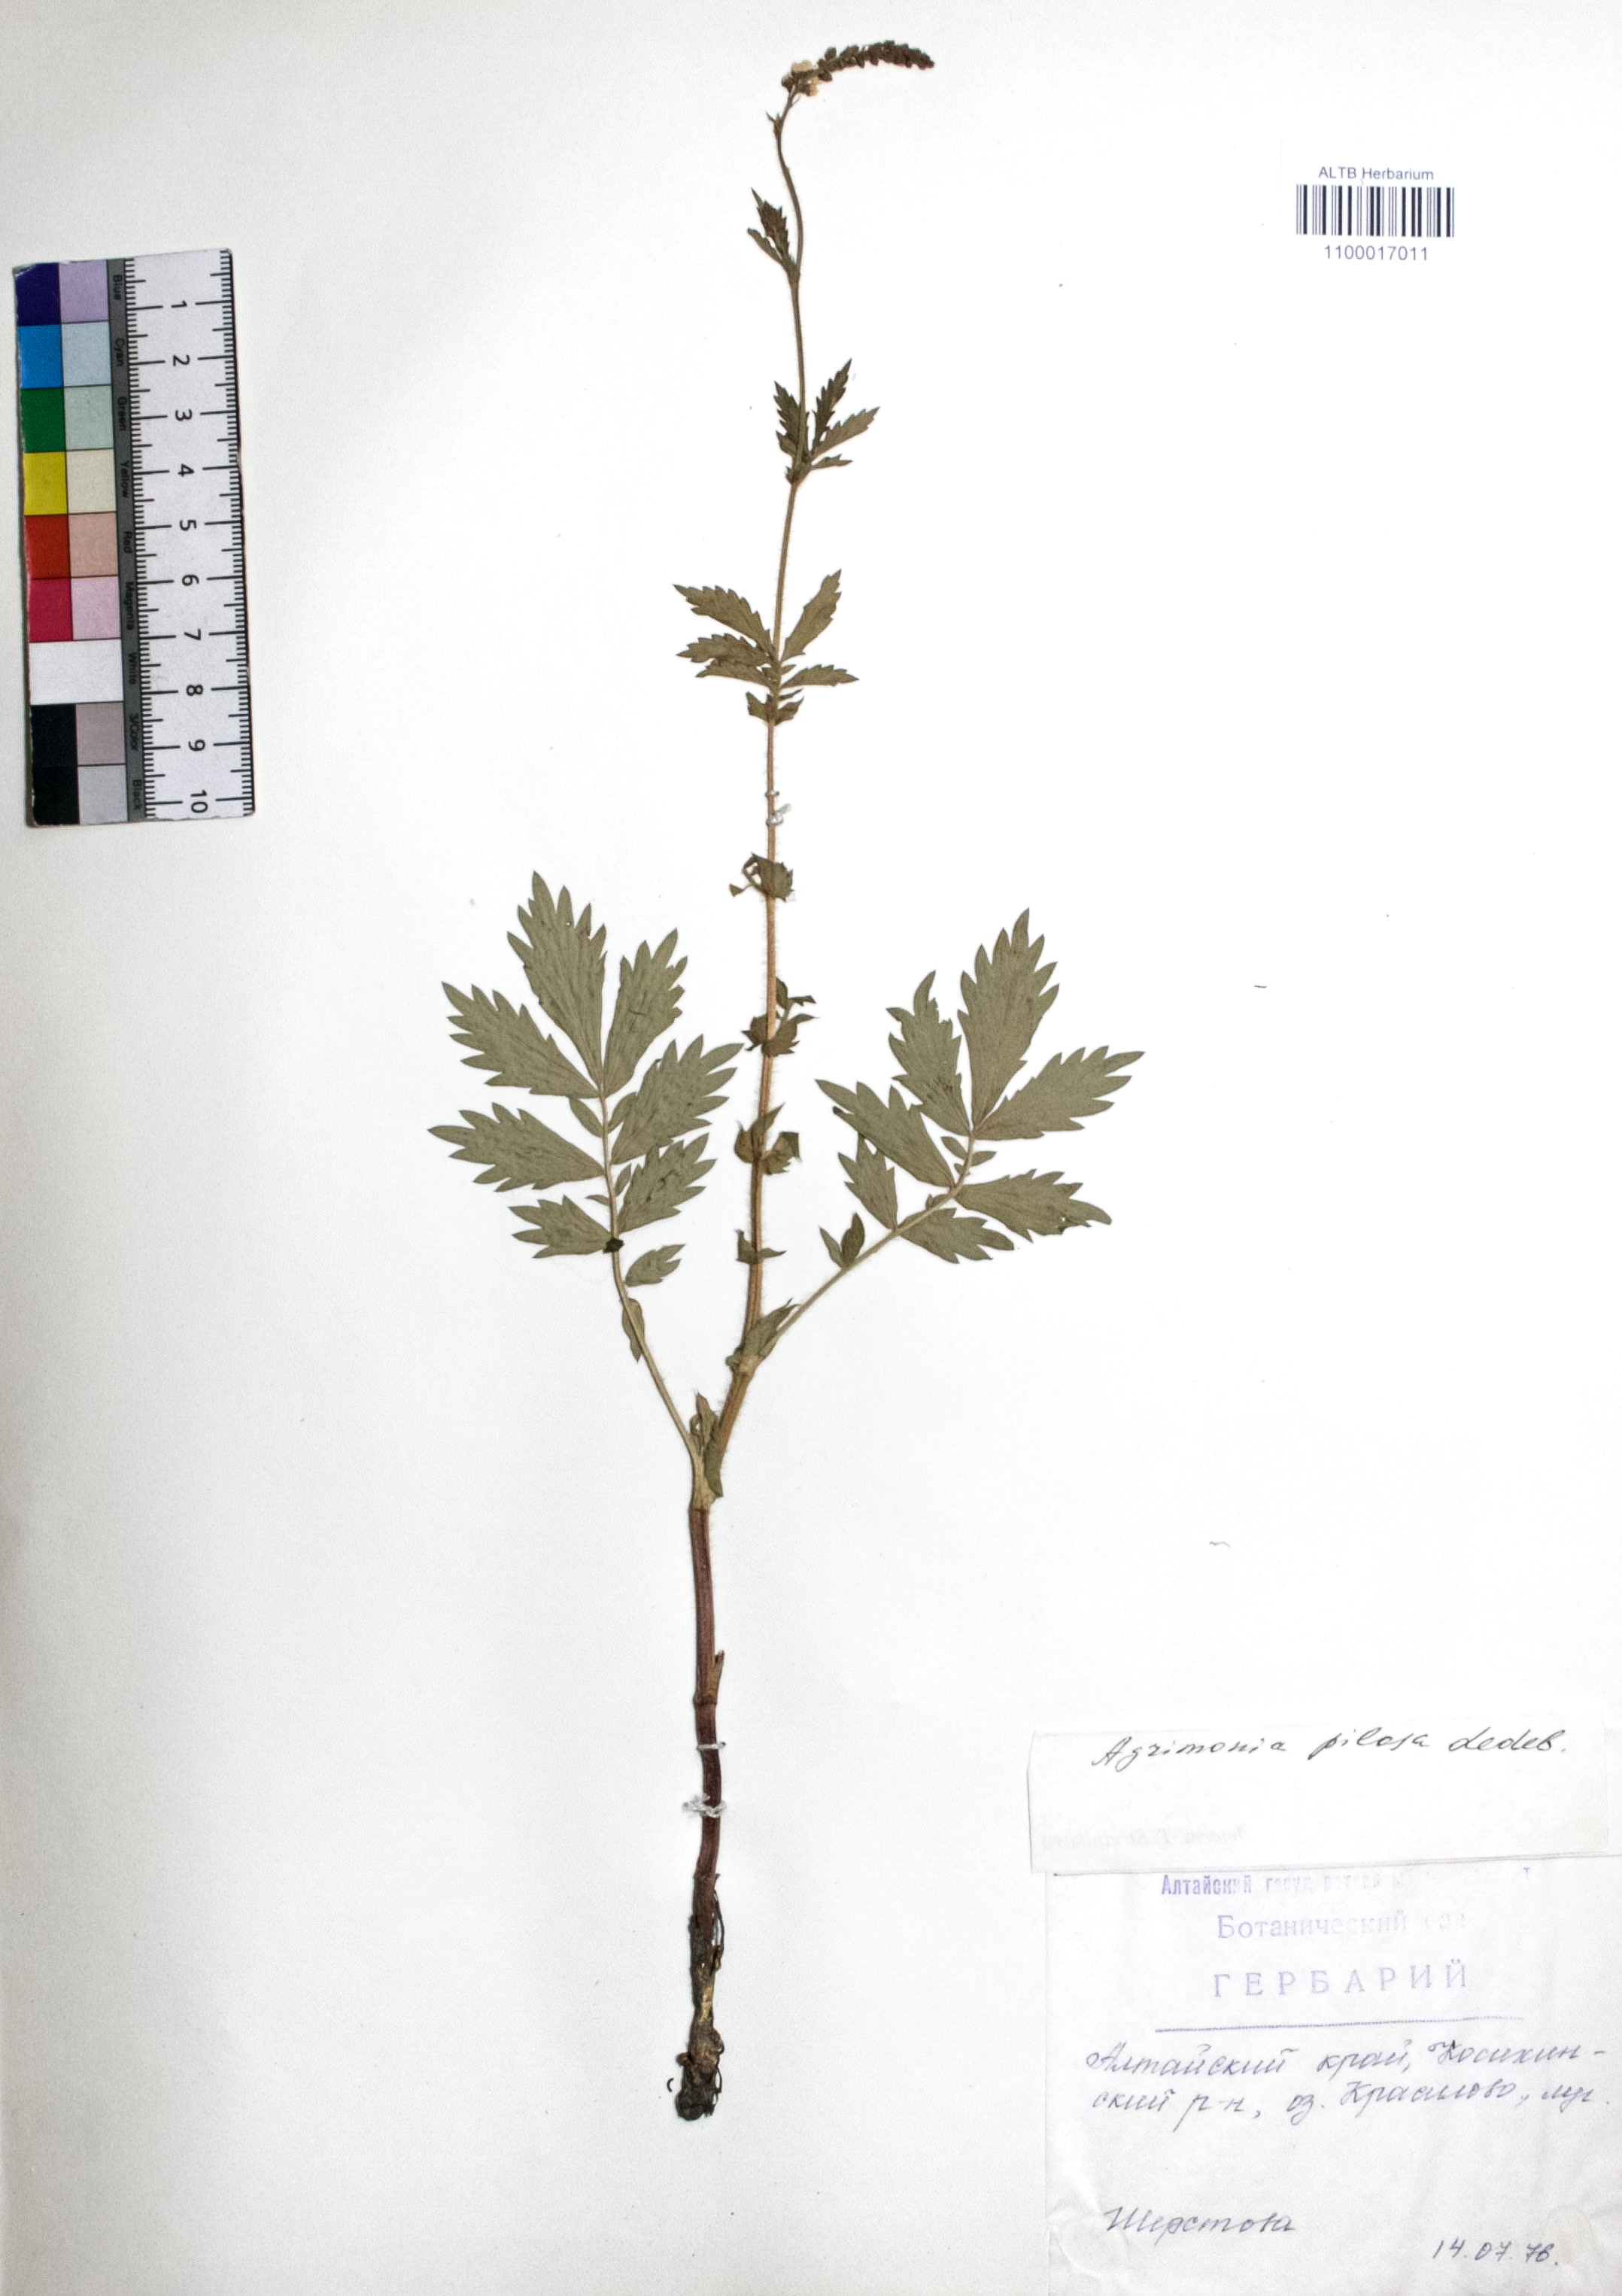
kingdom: Plantae
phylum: Tracheophyta
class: Magnoliopsida
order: Rosales
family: Rosaceae
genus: Agrimonia
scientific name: Agrimonia pilosa
